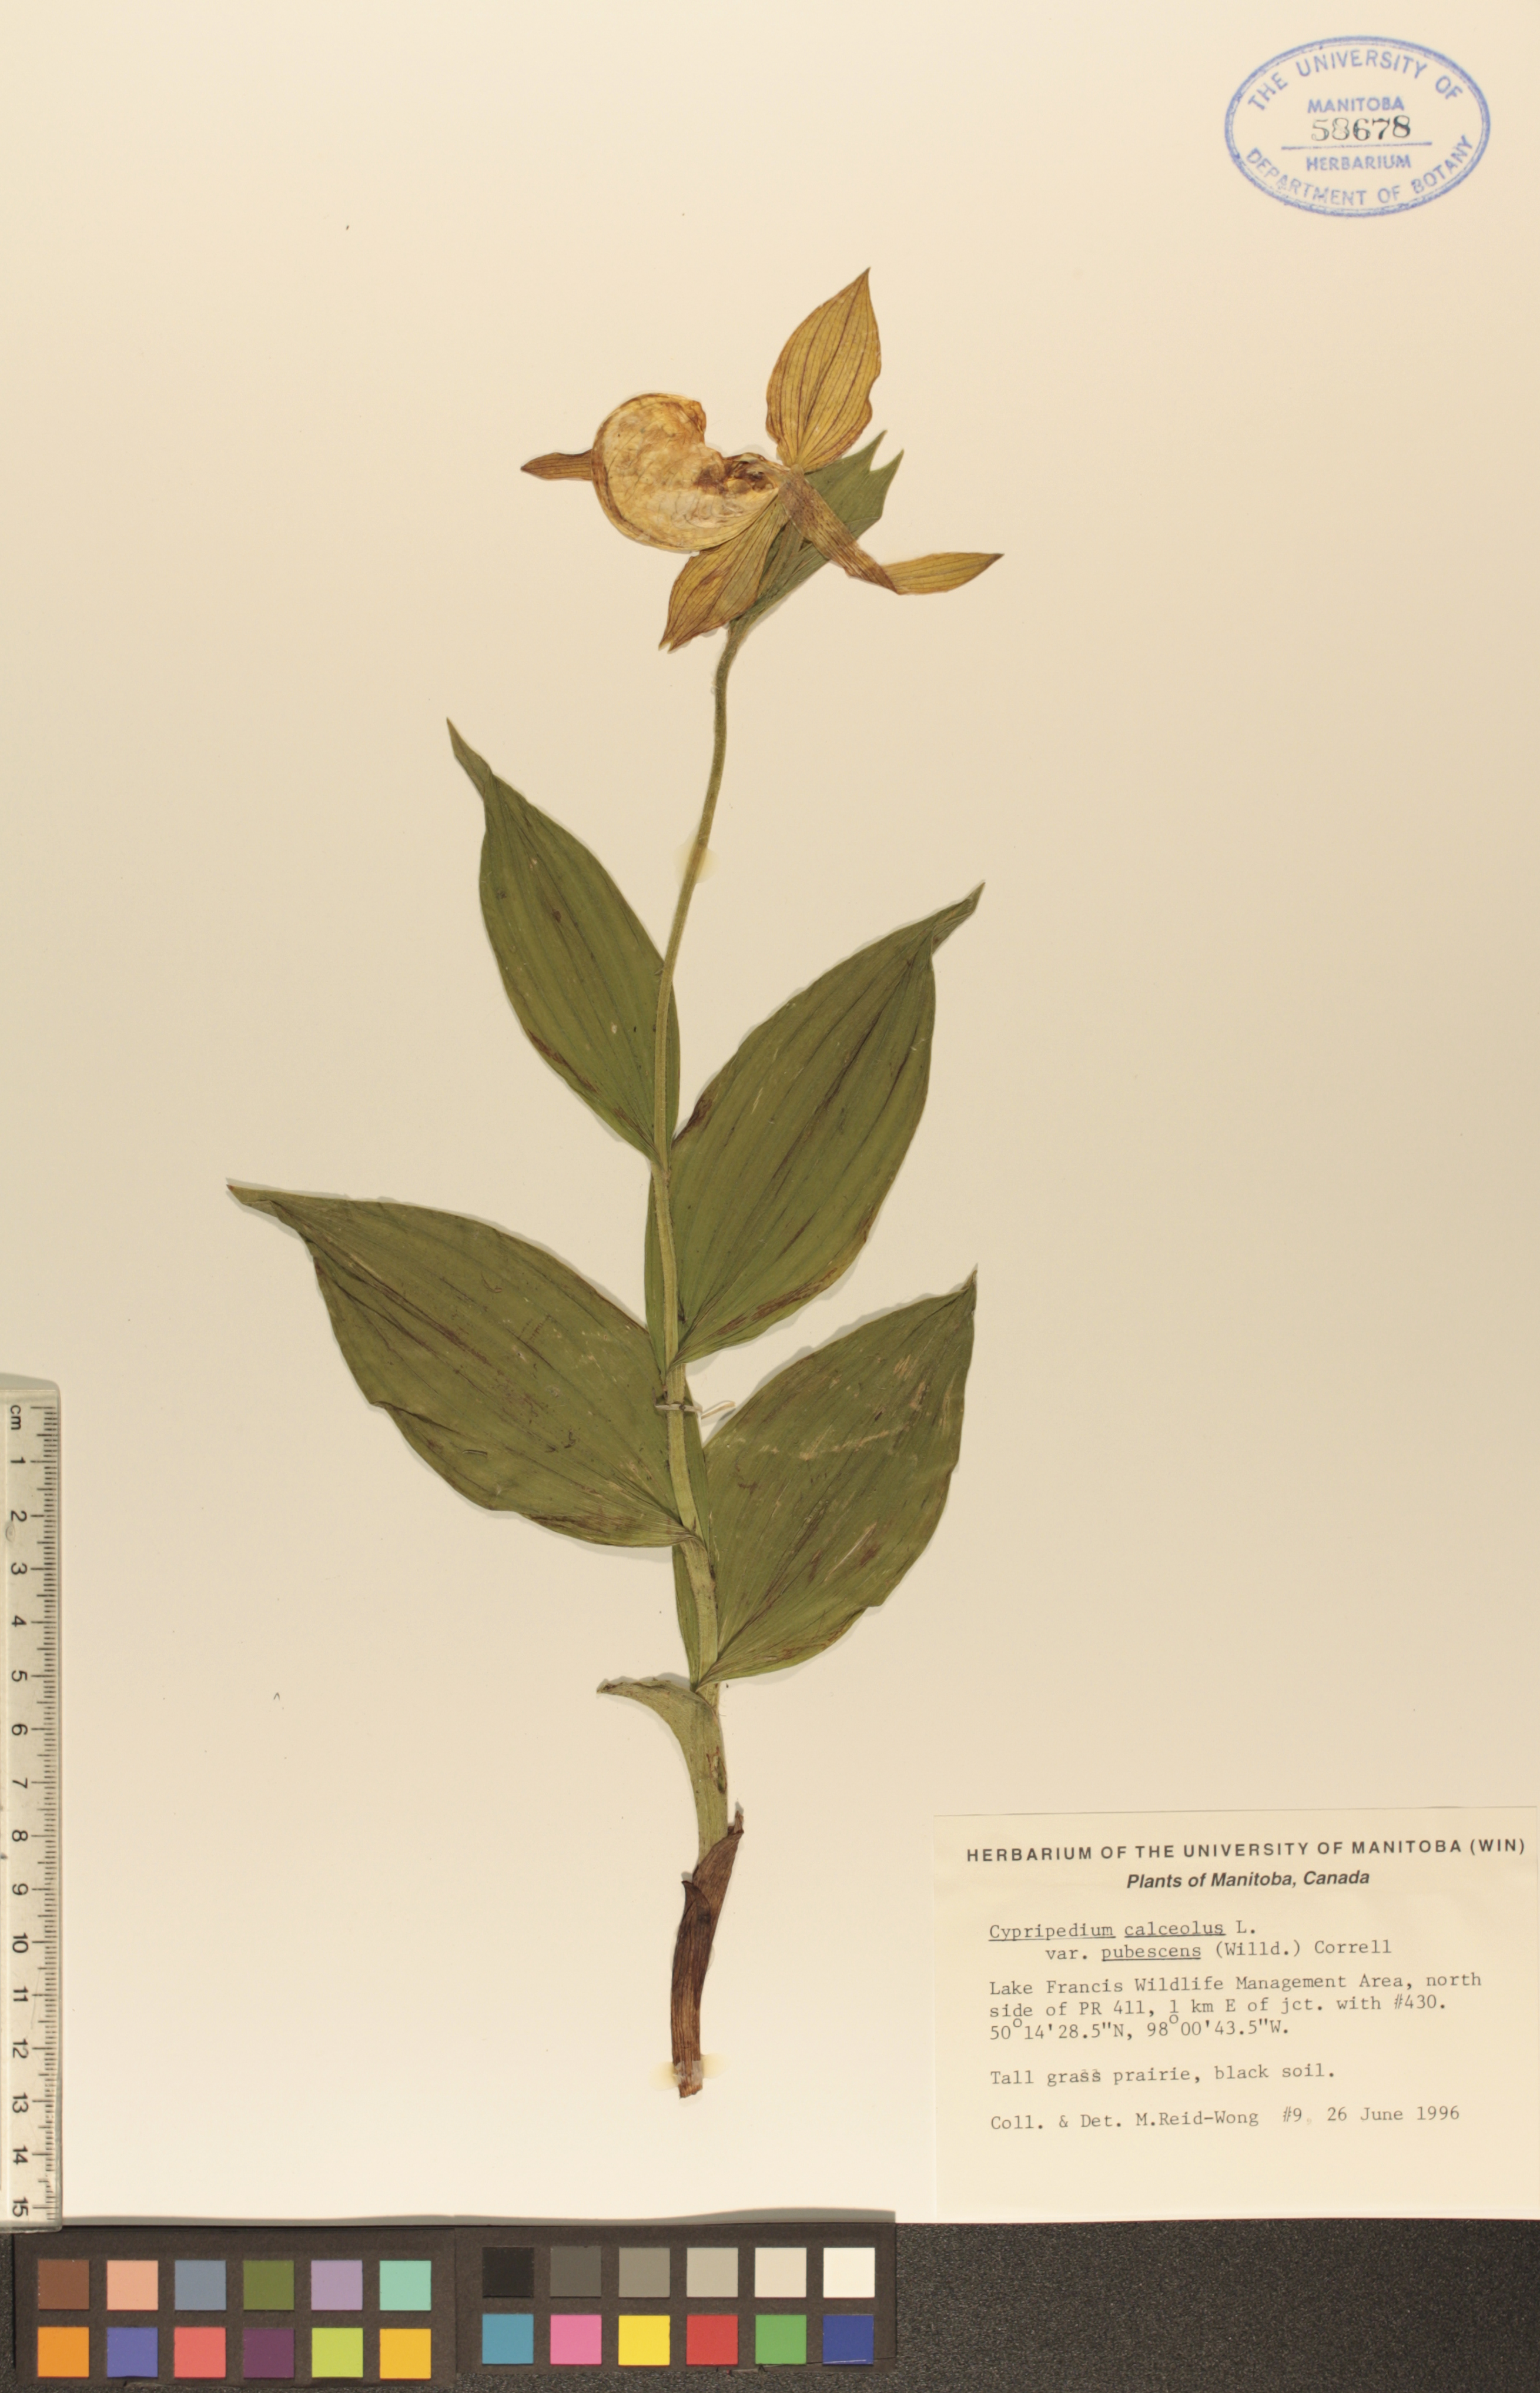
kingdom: Plantae
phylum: Tracheophyta
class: Liliopsida
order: Asparagales
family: Orchidaceae
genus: Cypripedium
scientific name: Cypripedium parviflorum
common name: American yellow lady's-slipper
